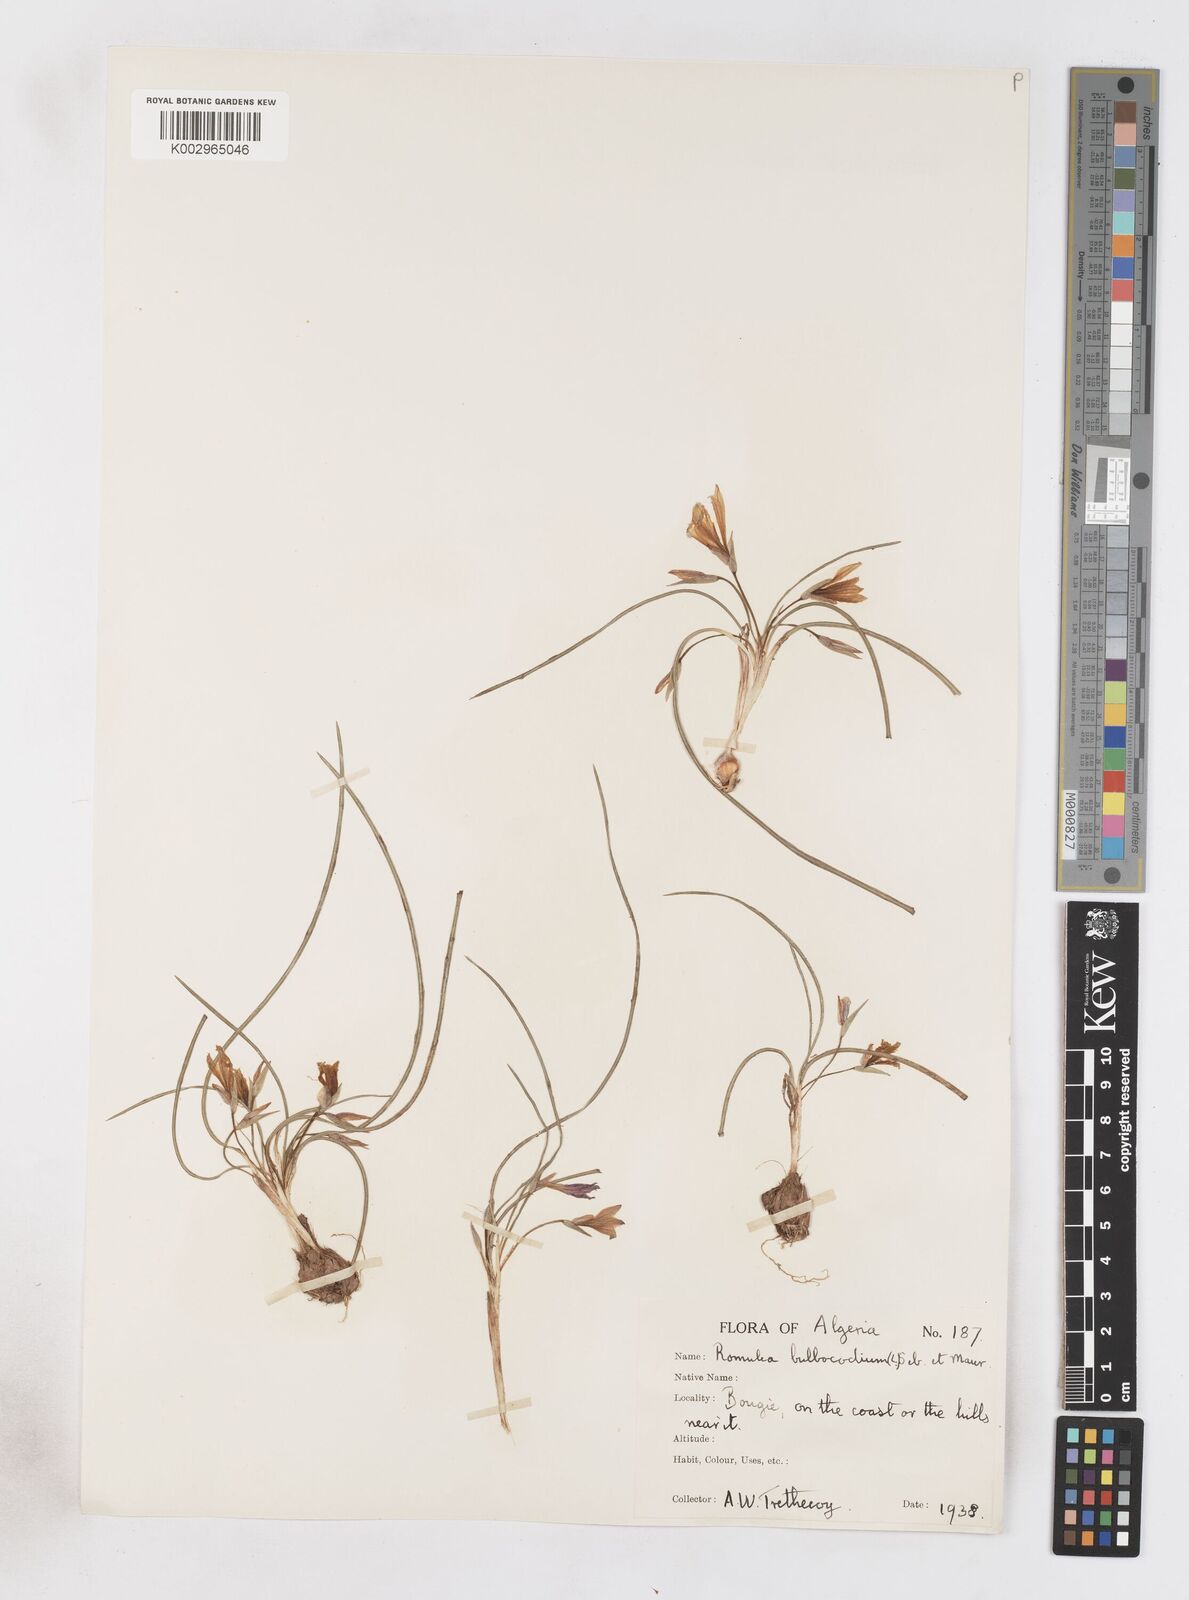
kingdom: Plantae
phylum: Tracheophyta
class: Liliopsida
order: Asparagales
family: Iridaceae
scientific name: Iridaceae
